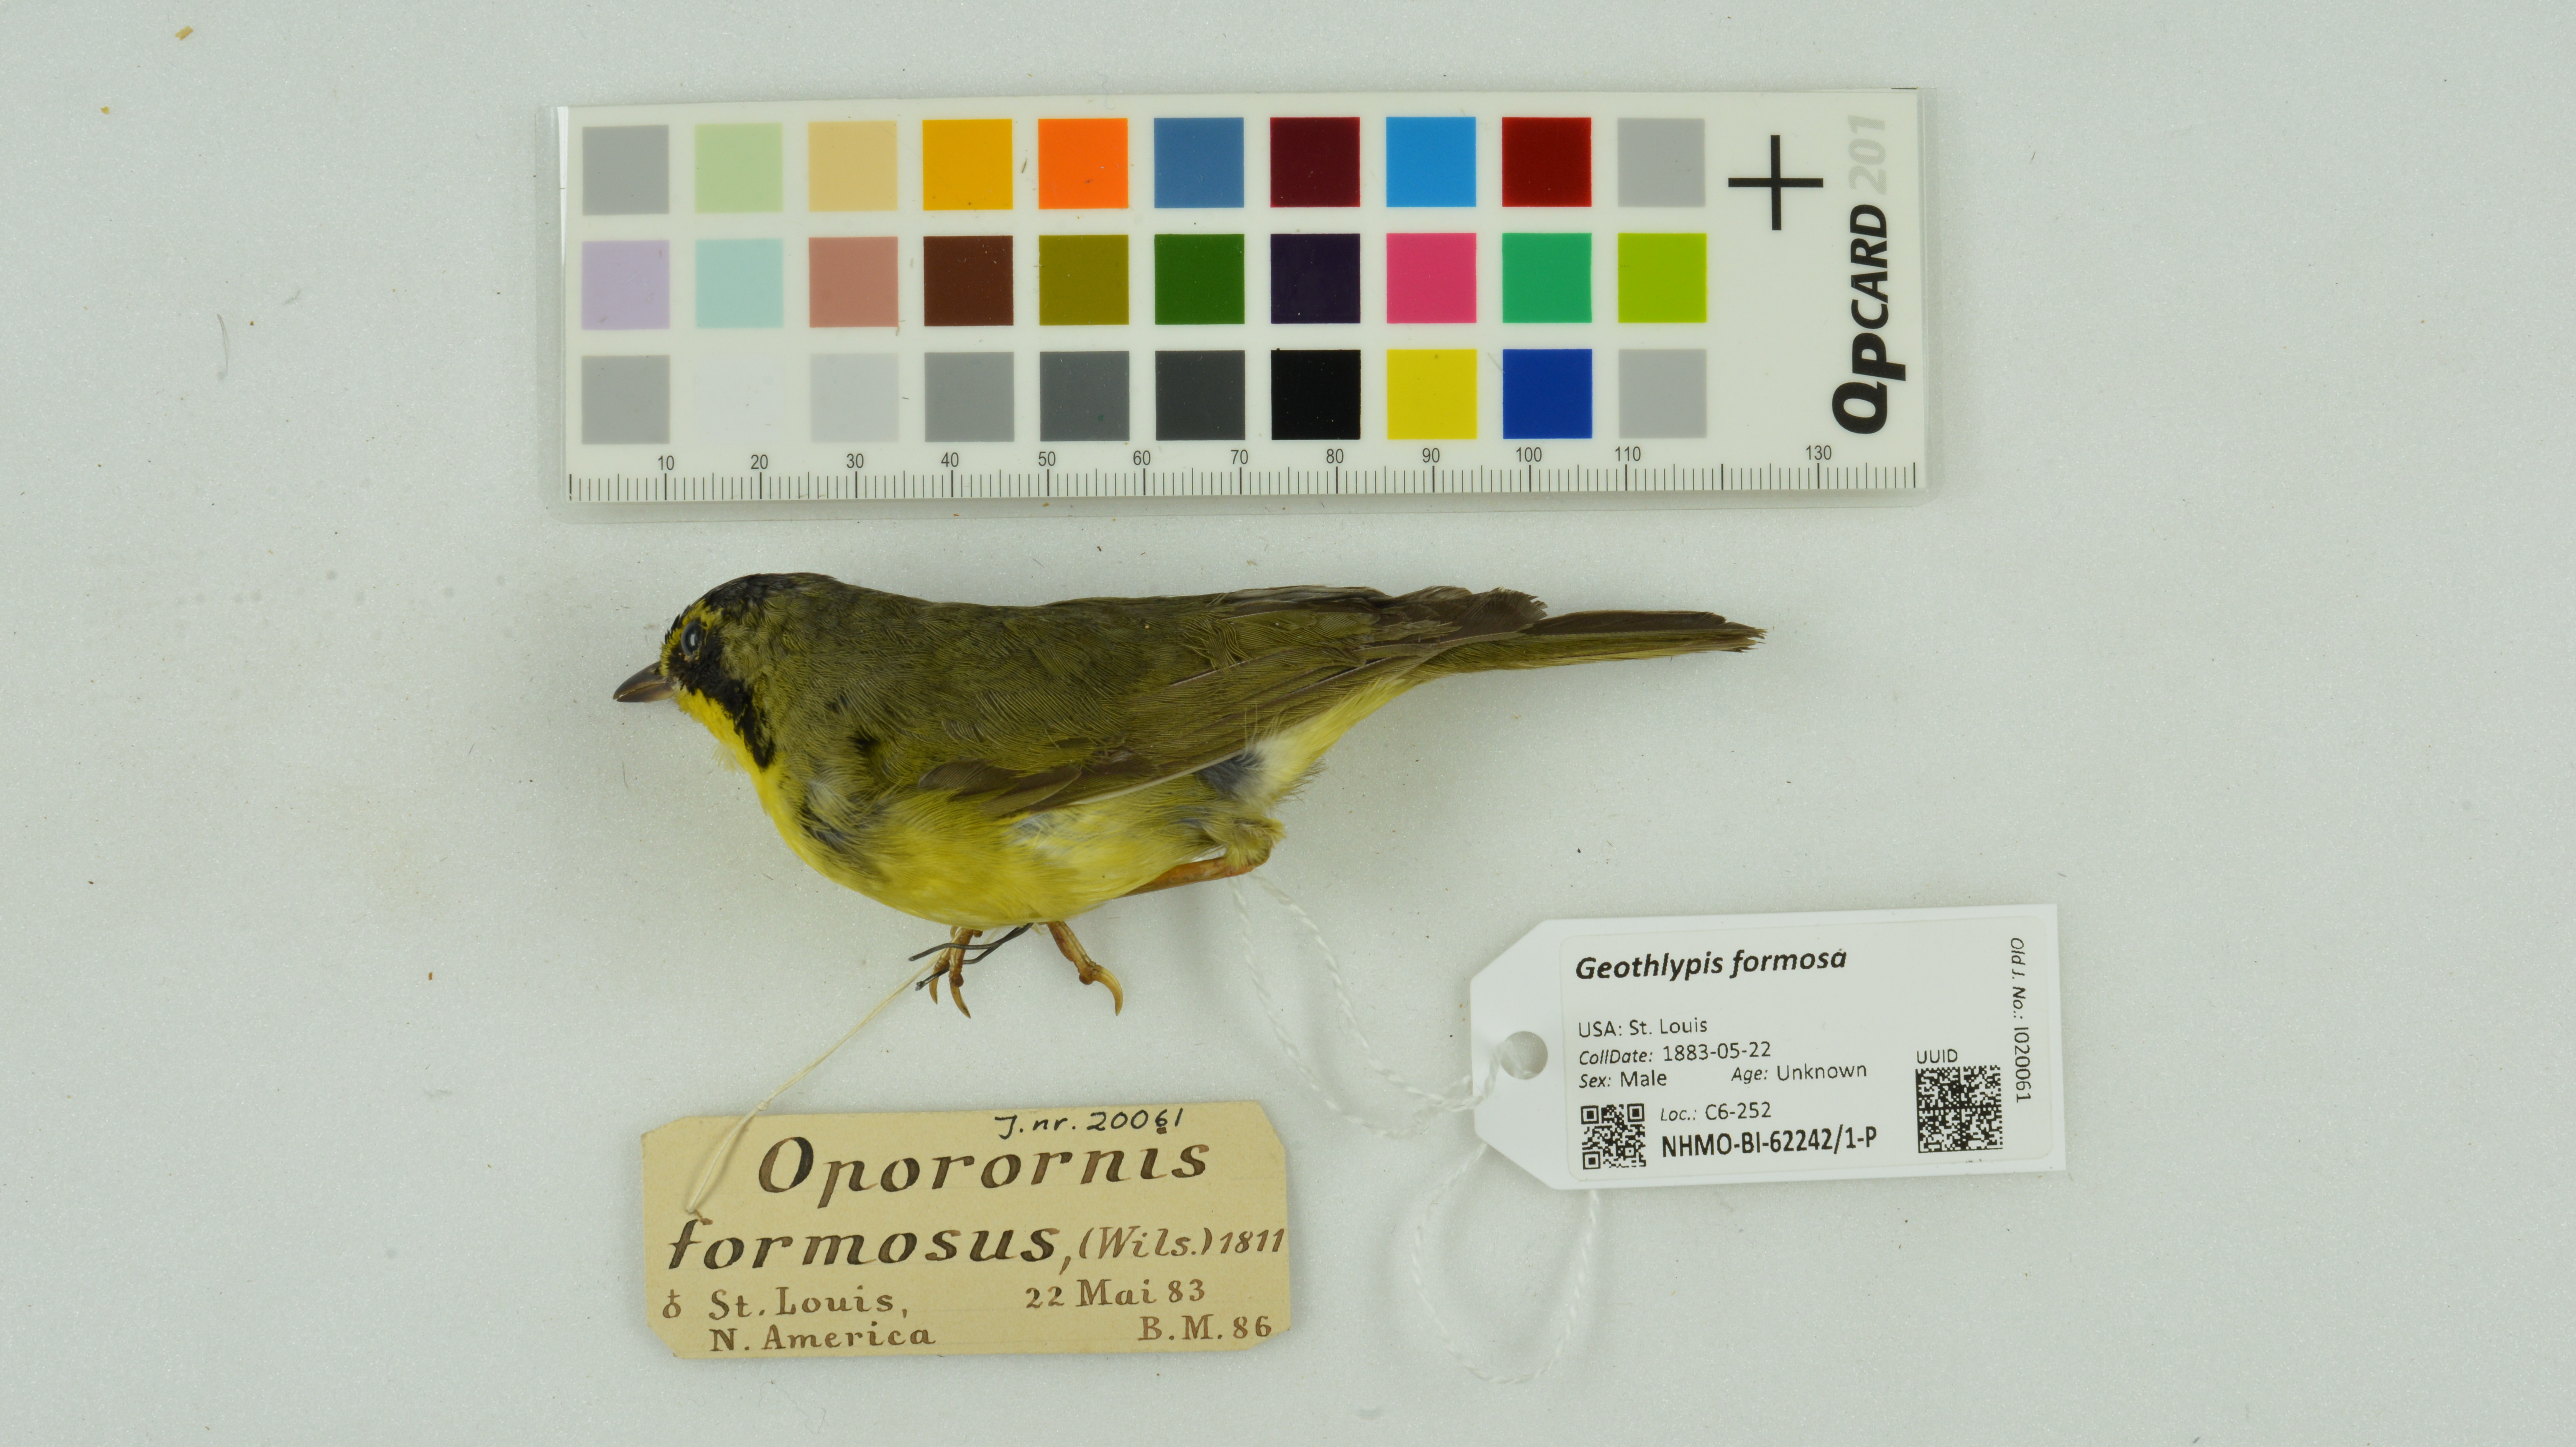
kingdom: Animalia
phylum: Chordata
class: Aves
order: Passeriformes
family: Parulidae
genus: Geothlypis
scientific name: Geothlypis formosa
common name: Kentucky warbler
